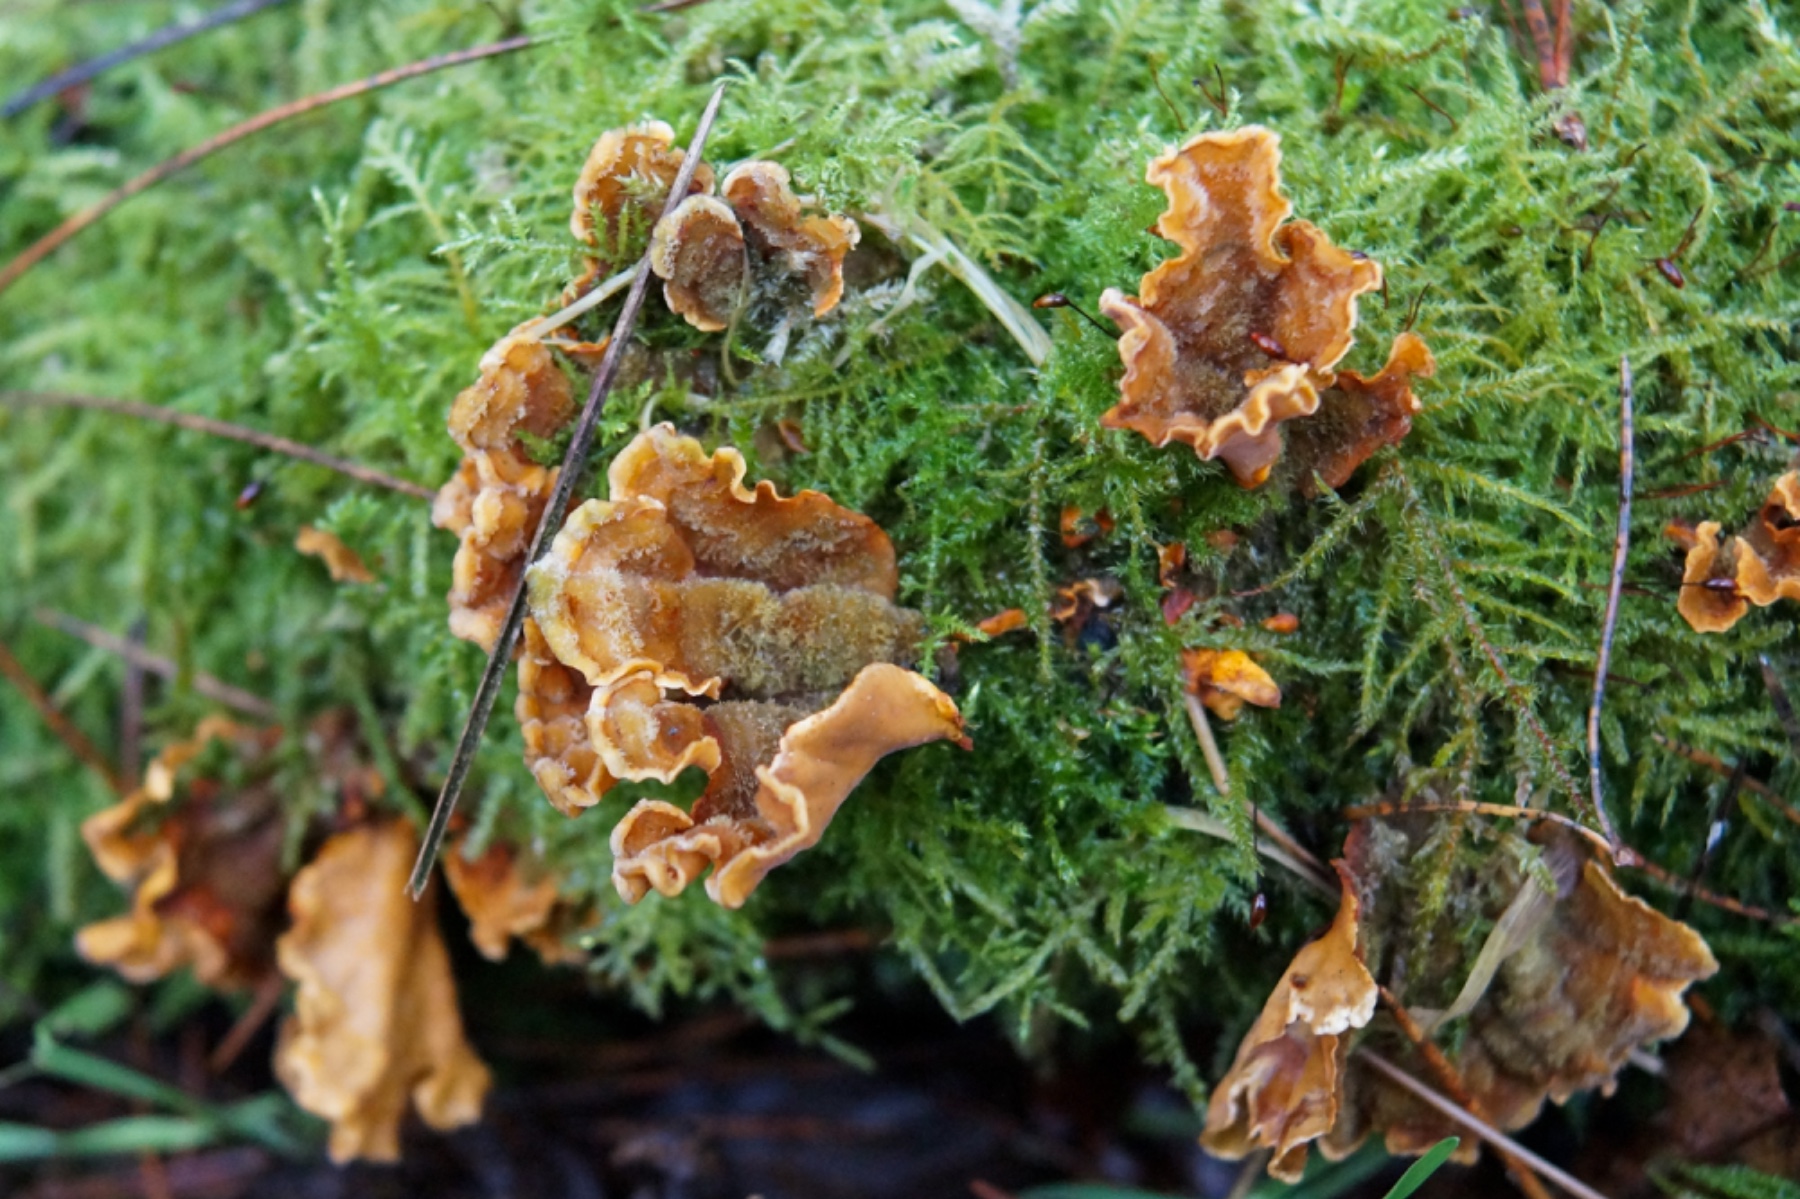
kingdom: Fungi
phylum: Basidiomycota
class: Agaricomycetes
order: Russulales
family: Stereaceae
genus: Stereum
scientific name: Stereum hirsutum
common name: håret lædersvamp
